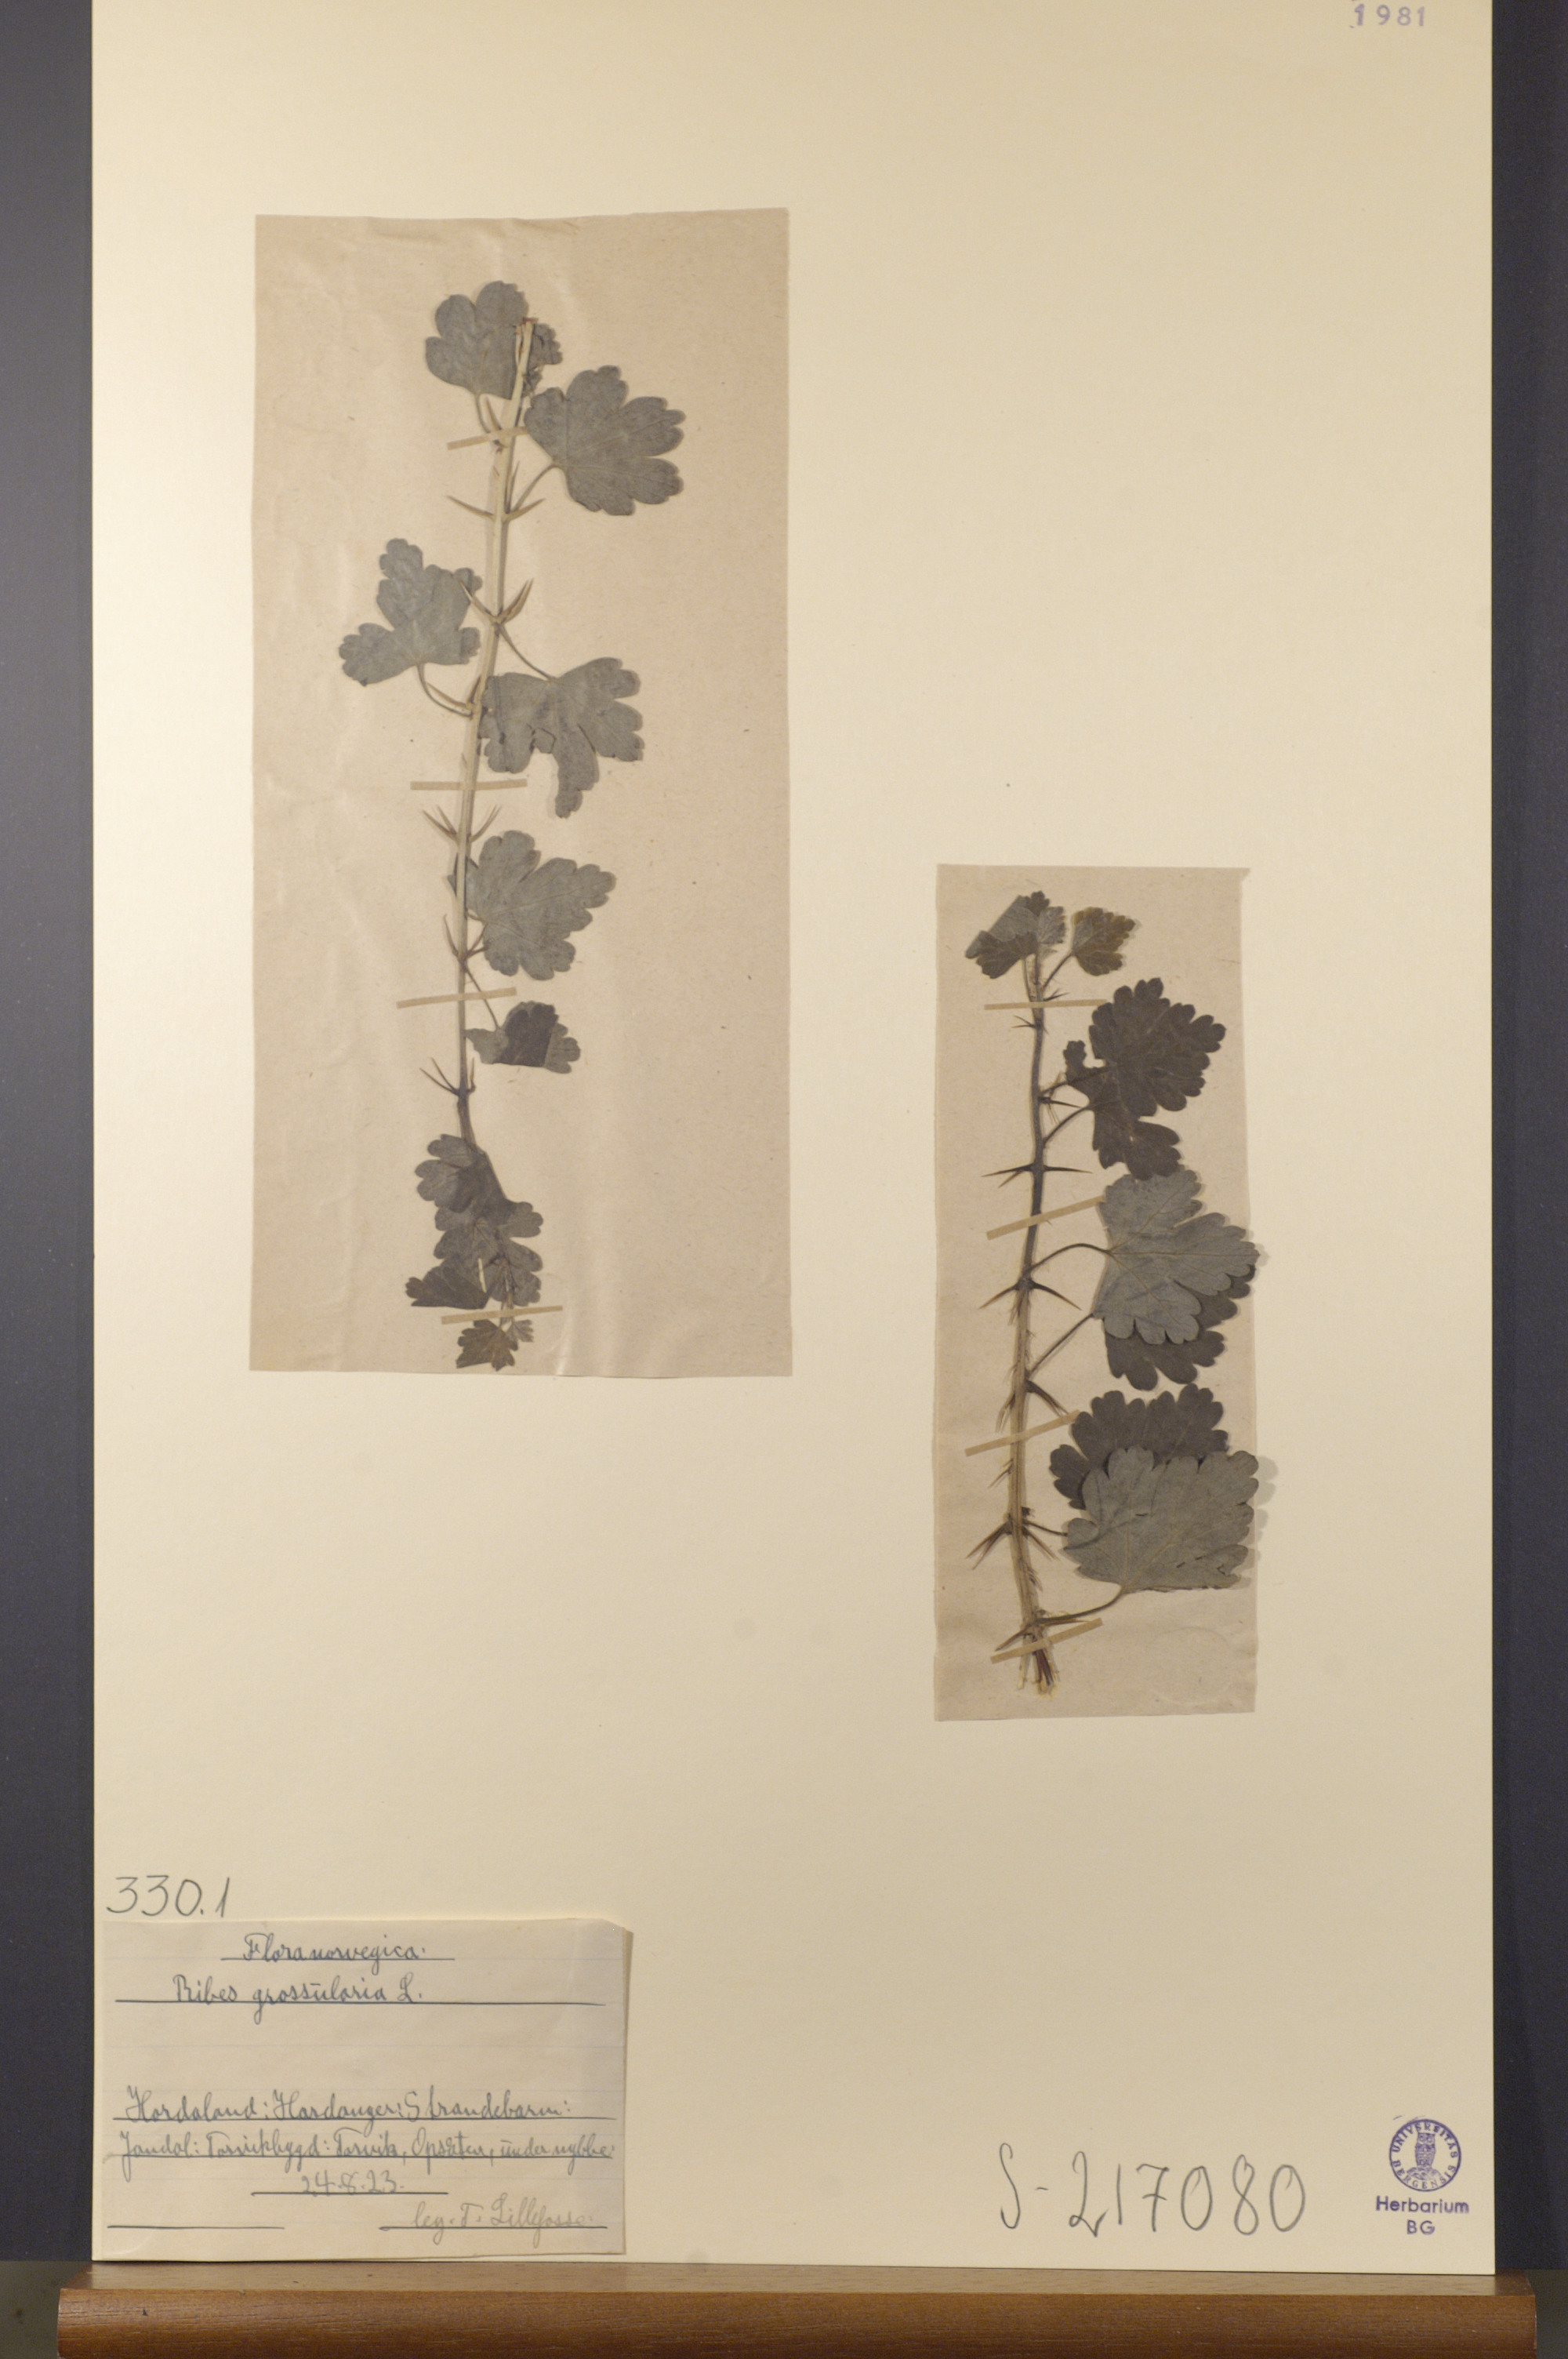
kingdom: Plantae
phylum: Tracheophyta
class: Magnoliopsida
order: Saxifragales
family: Grossulariaceae
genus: Ribes
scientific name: Ribes uva-crispa
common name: Gooseberry
